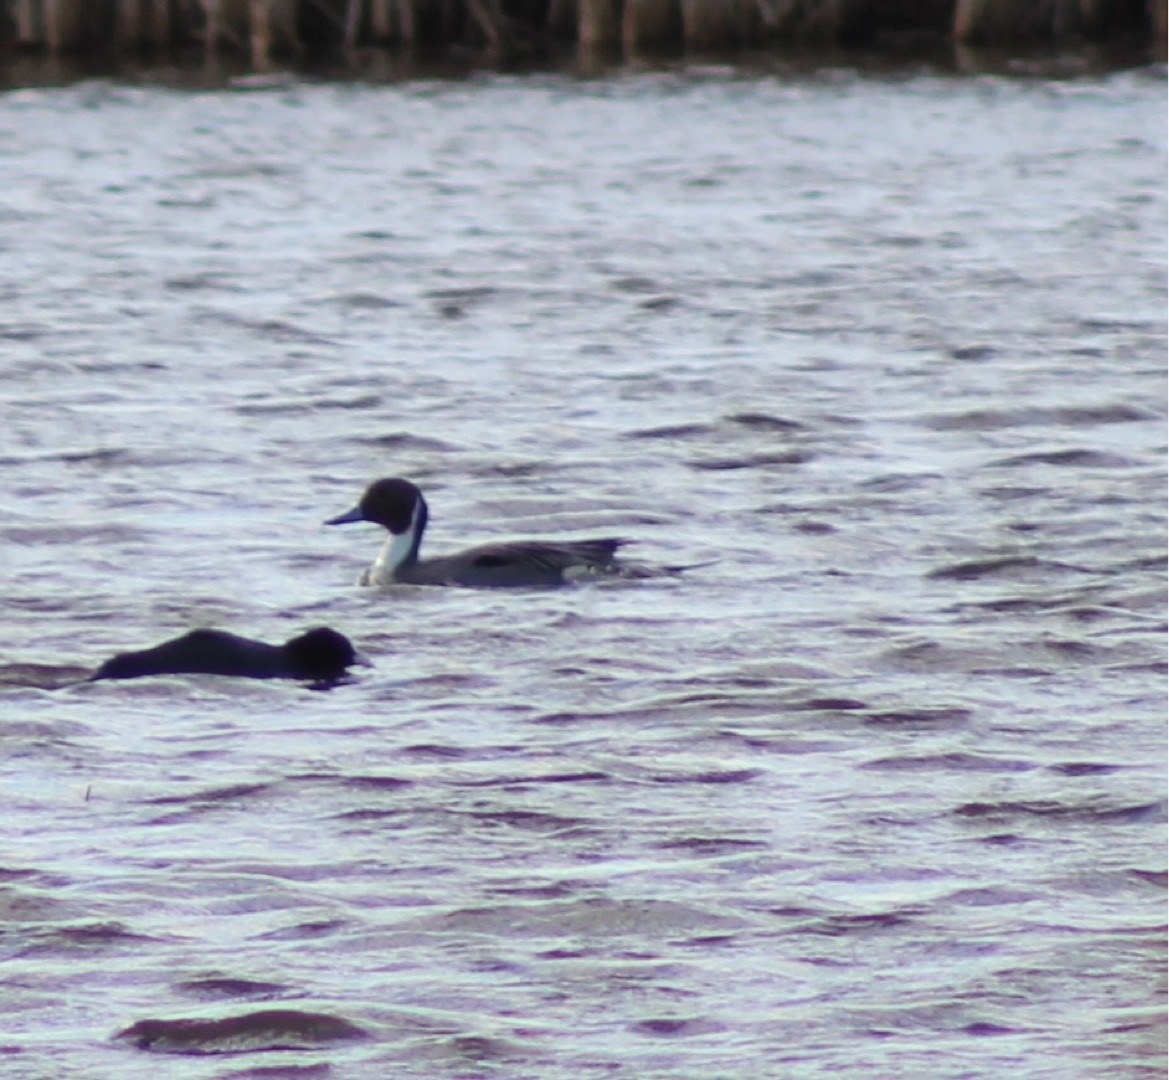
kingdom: Animalia
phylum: Chordata
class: Aves
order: Anseriformes
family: Anatidae
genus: Anas
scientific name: Anas acuta
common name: Spidsand
